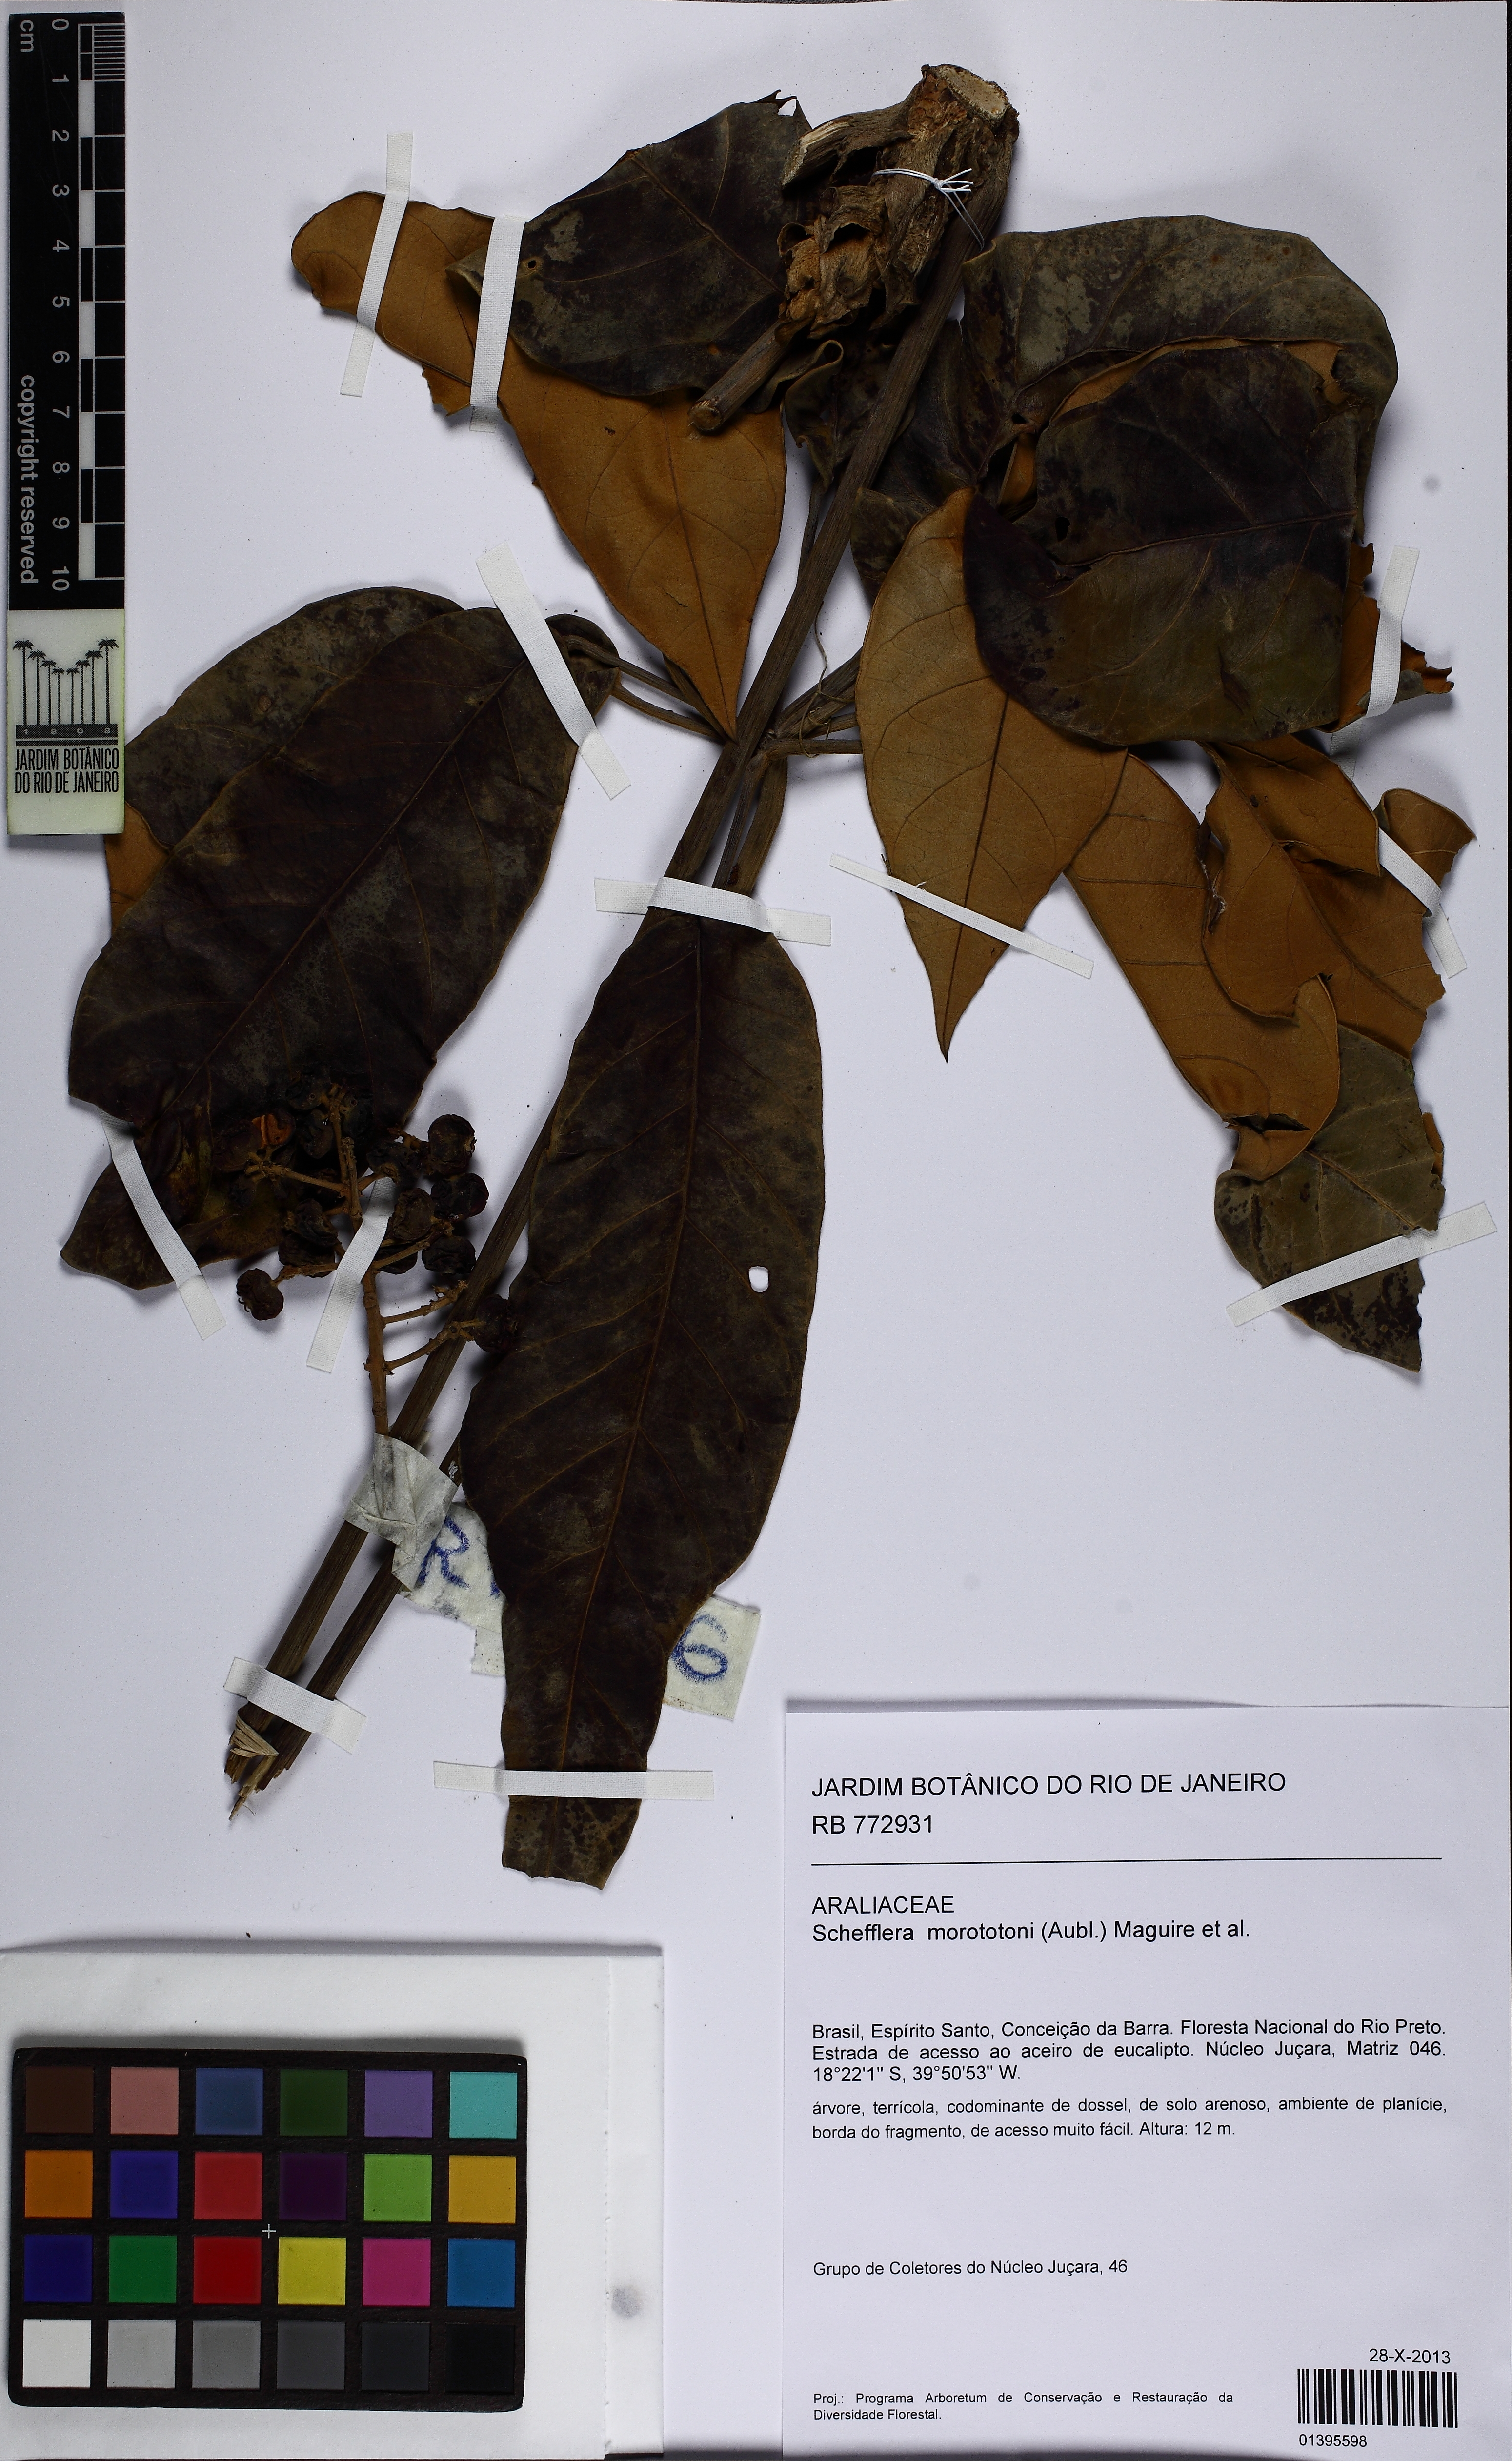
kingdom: Plantae
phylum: Tracheophyta
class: Magnoliopsida
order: Apiales
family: Araliaceae
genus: Didymopanax
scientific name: Didymopanax morototoni
